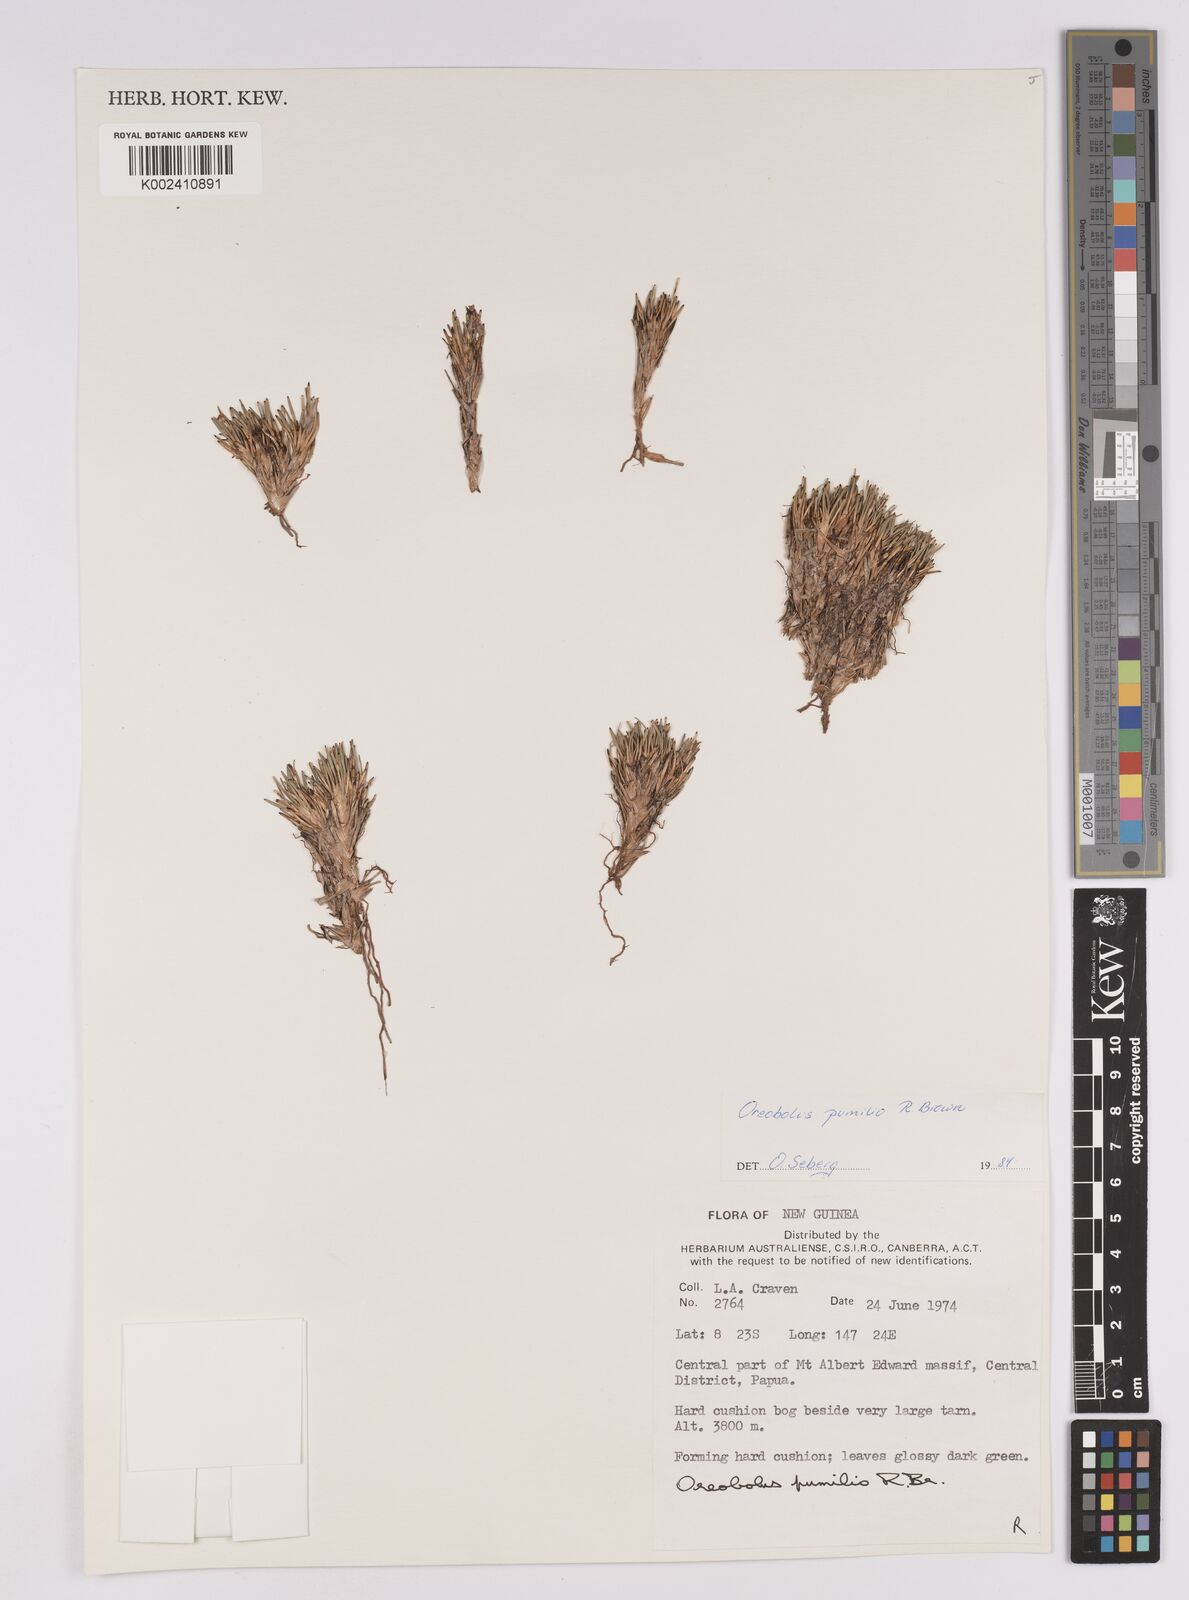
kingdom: Plantae
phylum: Tracheophyta
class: Liliopsida
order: Poales
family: Cyperaceae
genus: Oreobolus
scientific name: Oreobolus pumilio
